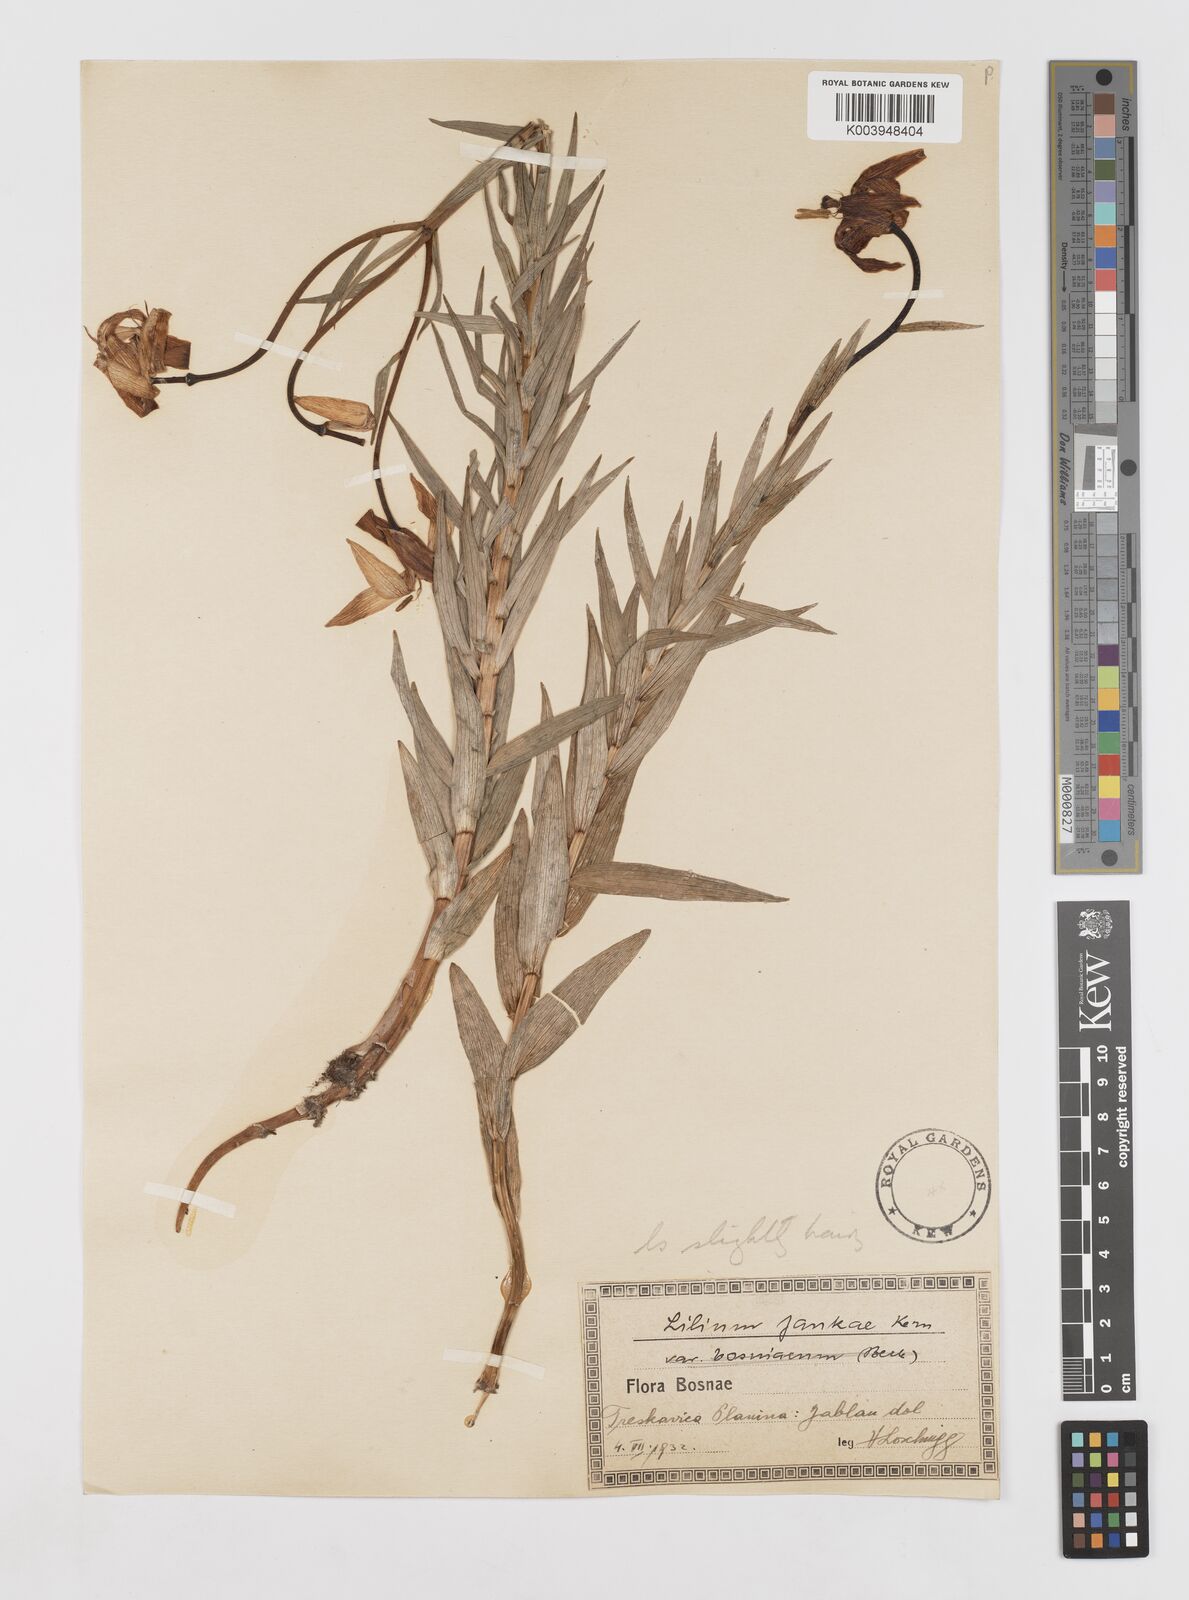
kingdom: Plantae
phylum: Tracheophyta
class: Liliopsida
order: Liliales
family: Liliaceae
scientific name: Liliaceae
